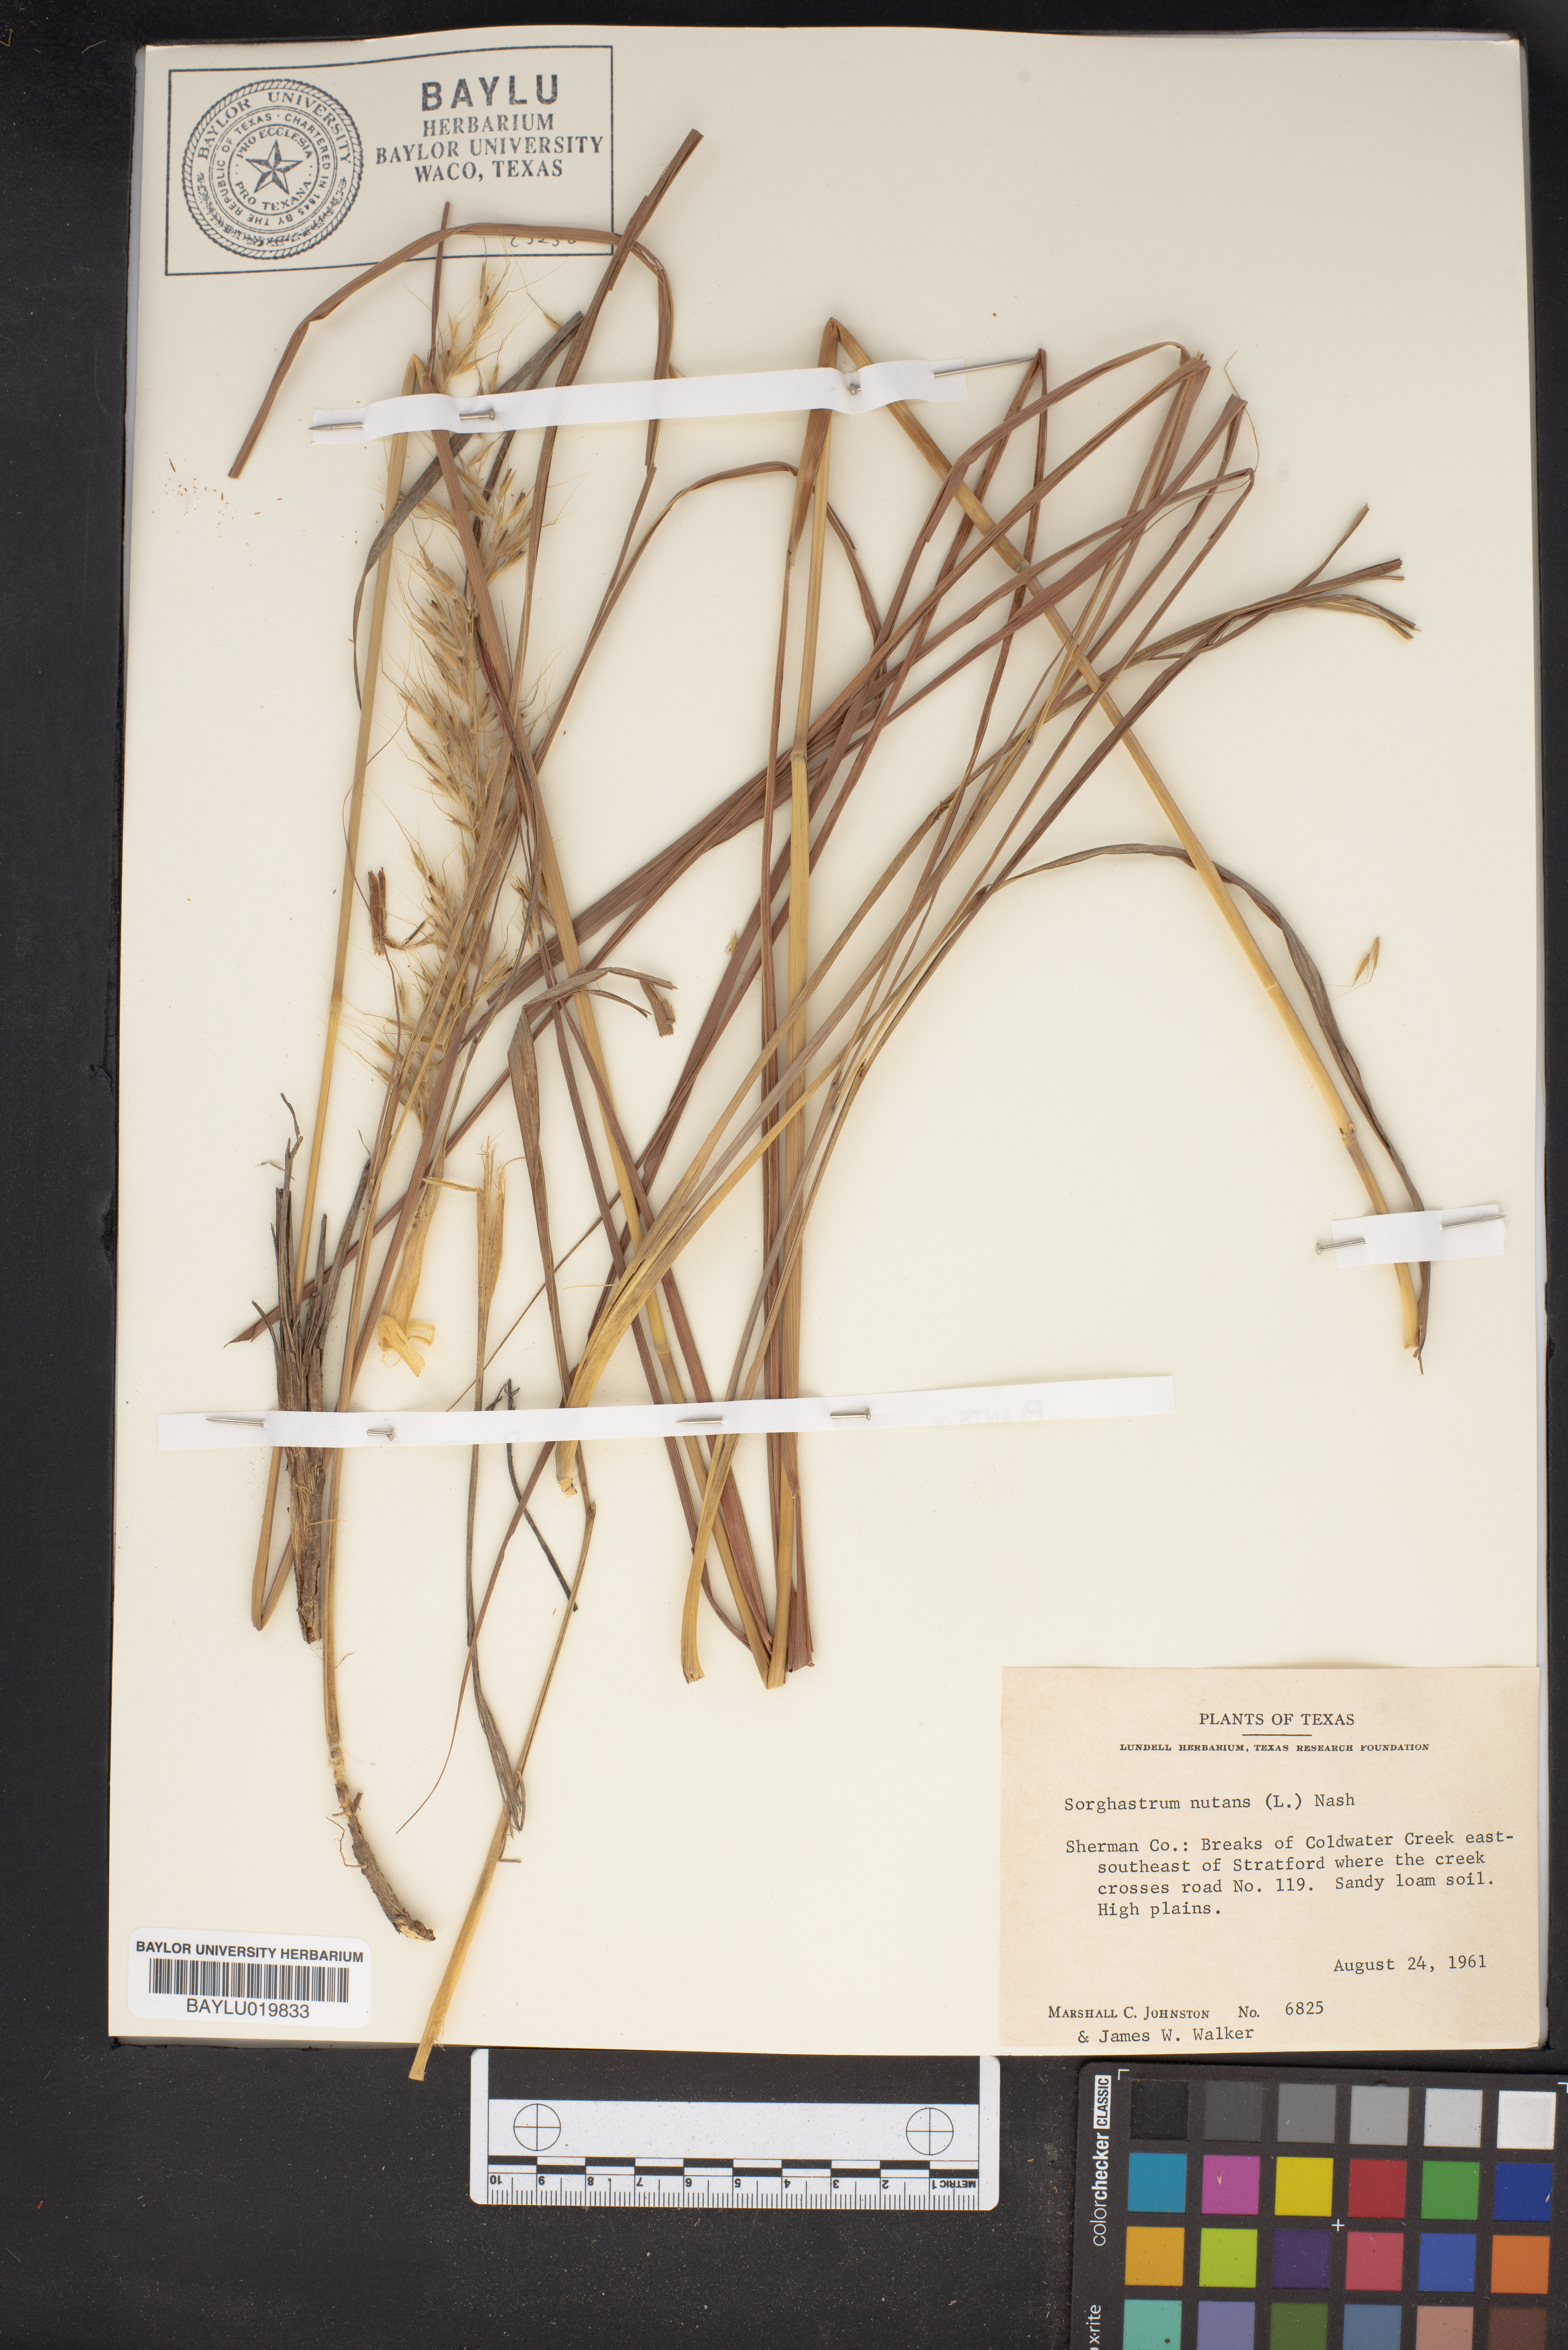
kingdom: Plantae
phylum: Tracheophyta
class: Liliopsida
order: Poales
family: Poaceae
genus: Sorghastrum
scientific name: Sorghastrum nutans
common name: Indian grass
